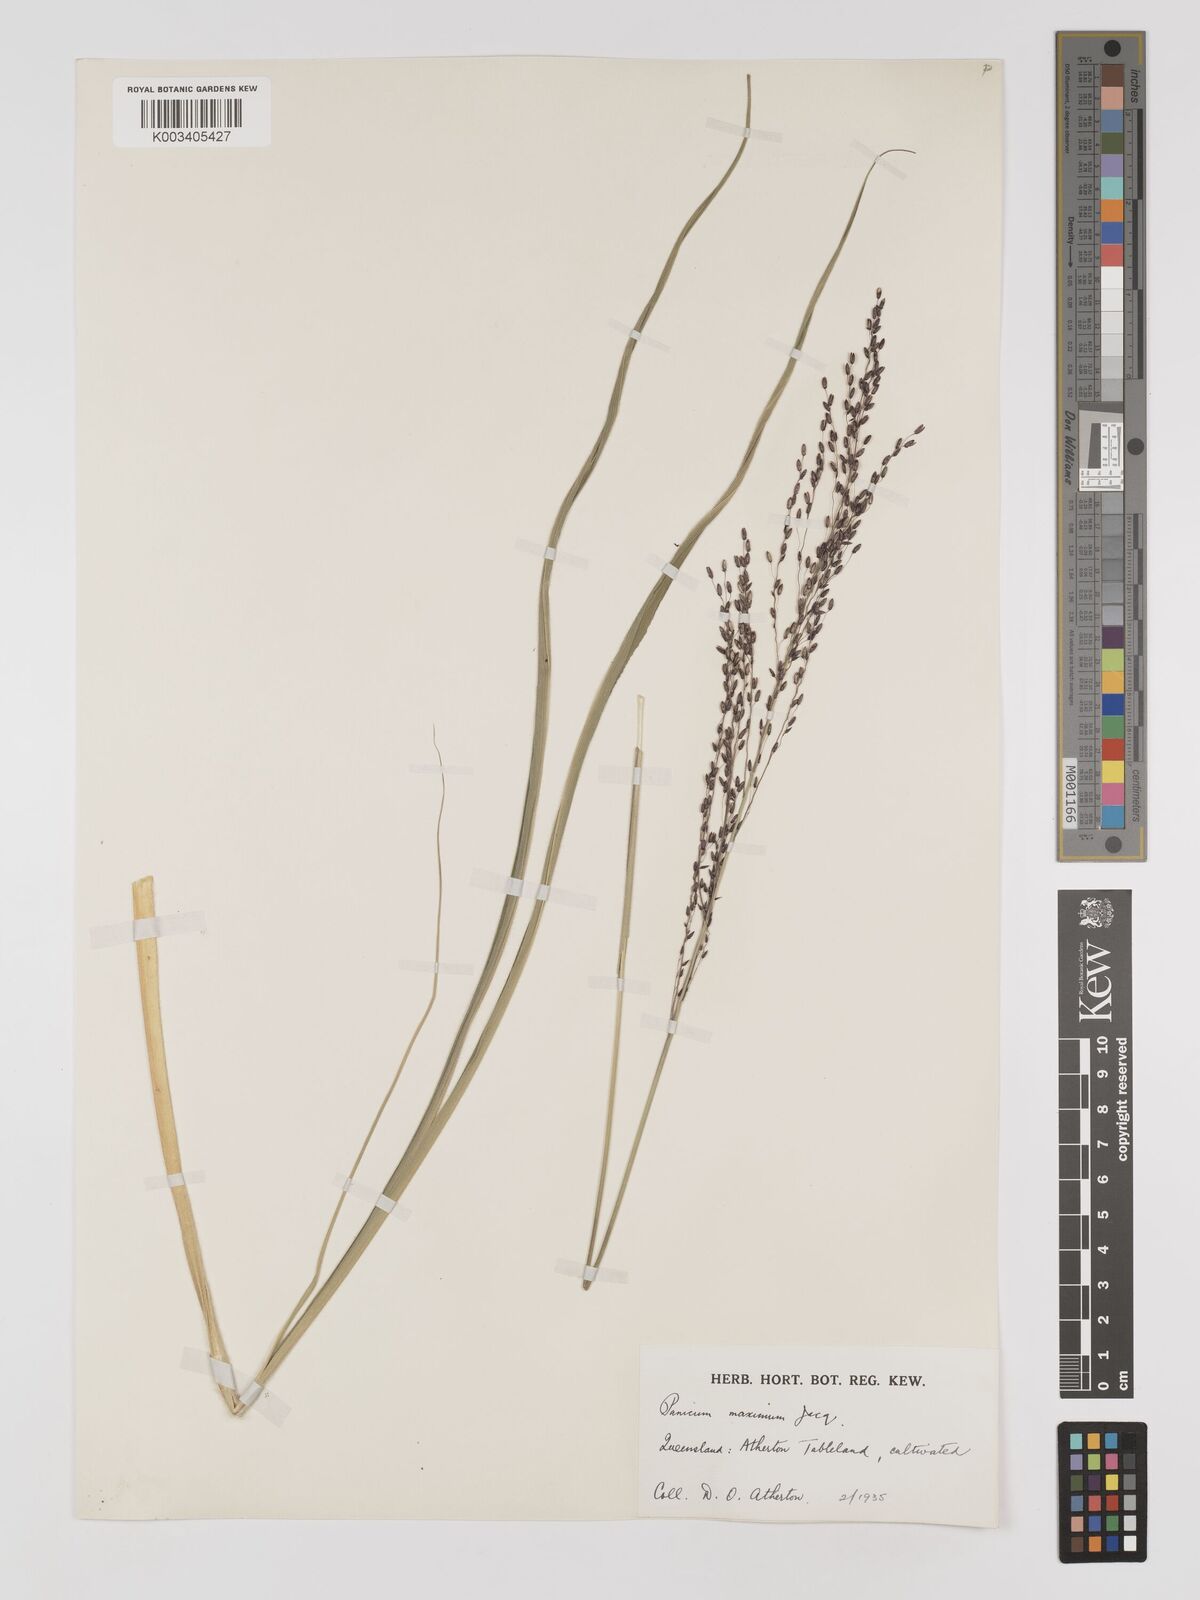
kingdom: Plantae
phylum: Tracheophyta
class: Liliopsida
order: Poales
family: Poaceae
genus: Megathyrsus
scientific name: Megathyrsus maximus
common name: Guineagrass
